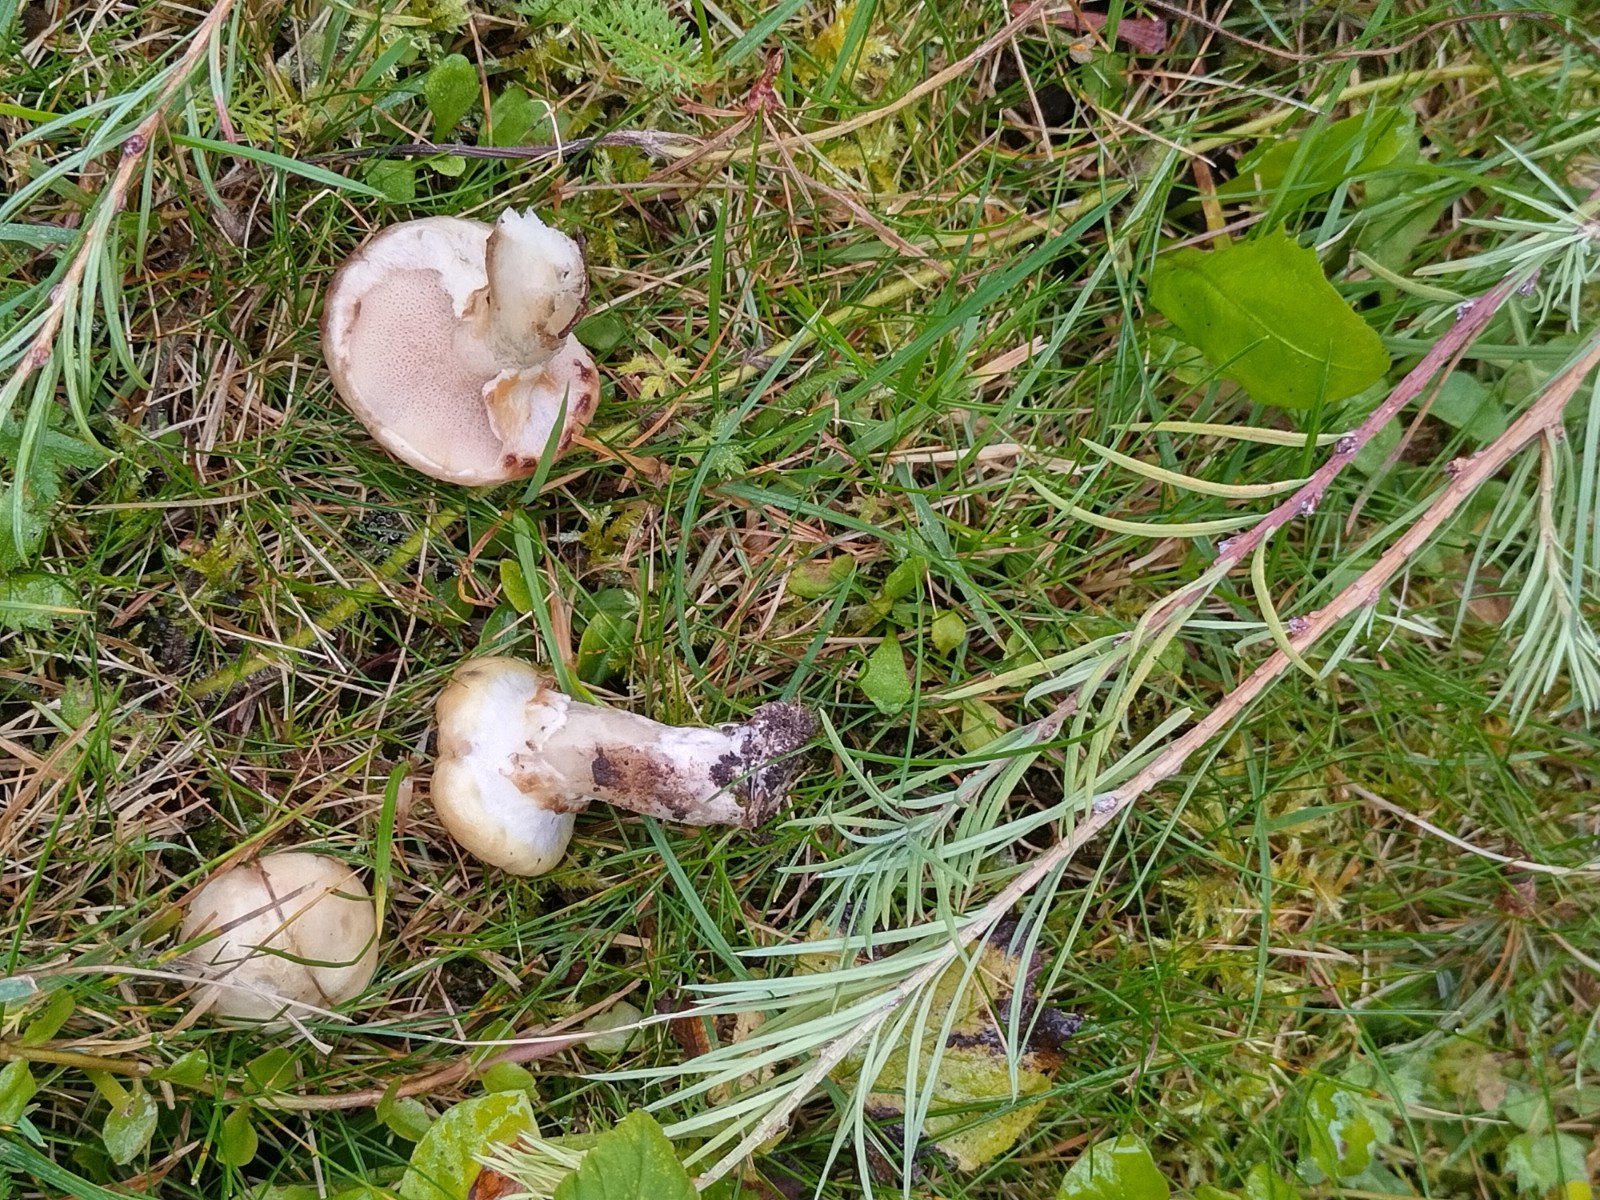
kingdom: Fungi
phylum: Basidiomycota
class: Agaricomycetes
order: Boletales
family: Suillaceae
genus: Suillus
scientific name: Suillus viscidus
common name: olivengrå slimrørhat
